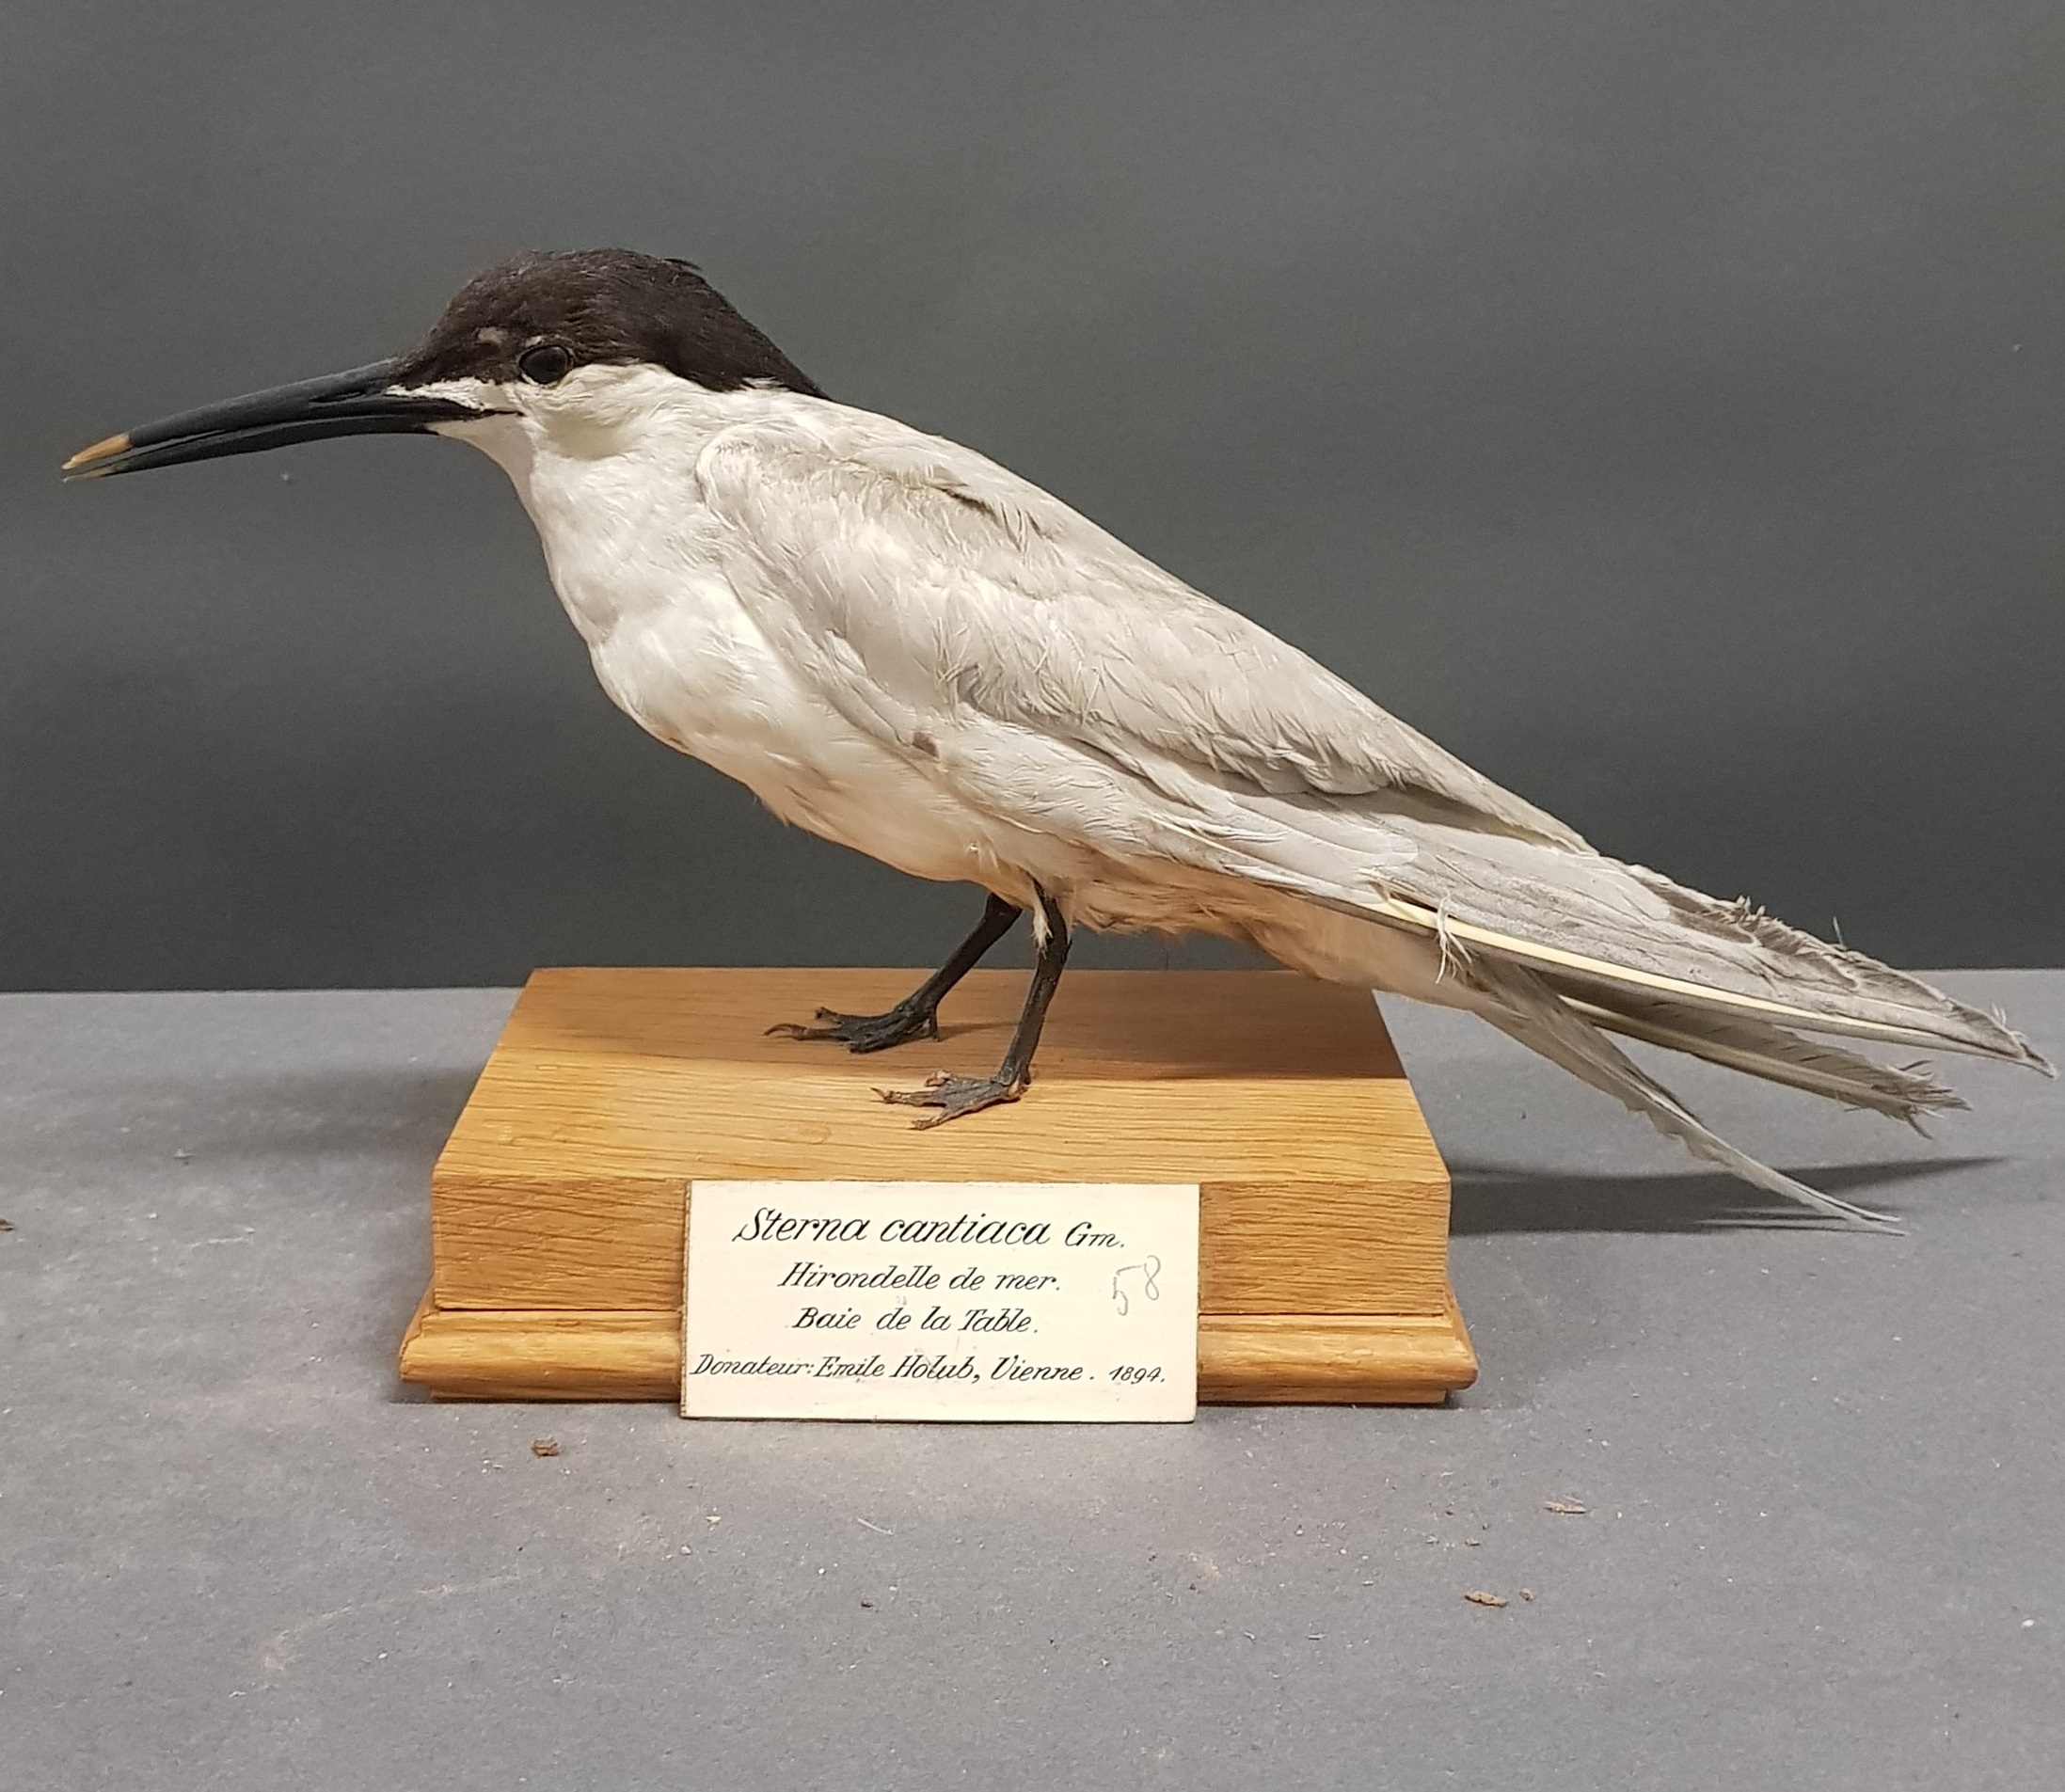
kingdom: Animalia
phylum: Chordata
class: Aves
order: Charadriiformes
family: Laridae
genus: Thalasseus
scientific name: Thalasseus sandvicensis
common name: Sandwich tern
